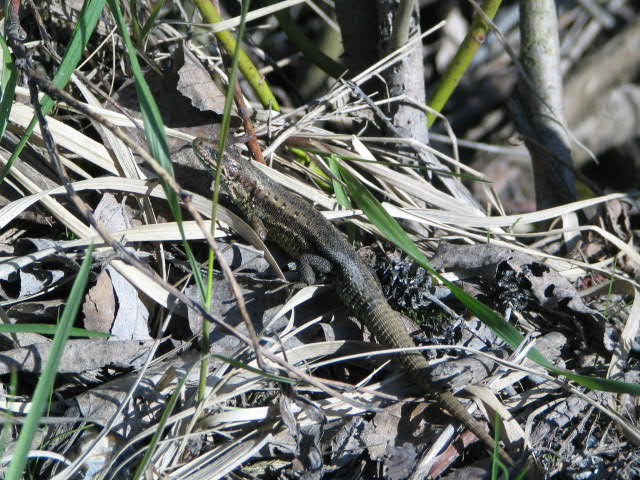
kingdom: Animalia
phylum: Chordata
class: Squamata
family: Lacertidae
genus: Zootoca
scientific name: Zootoca vivipara
